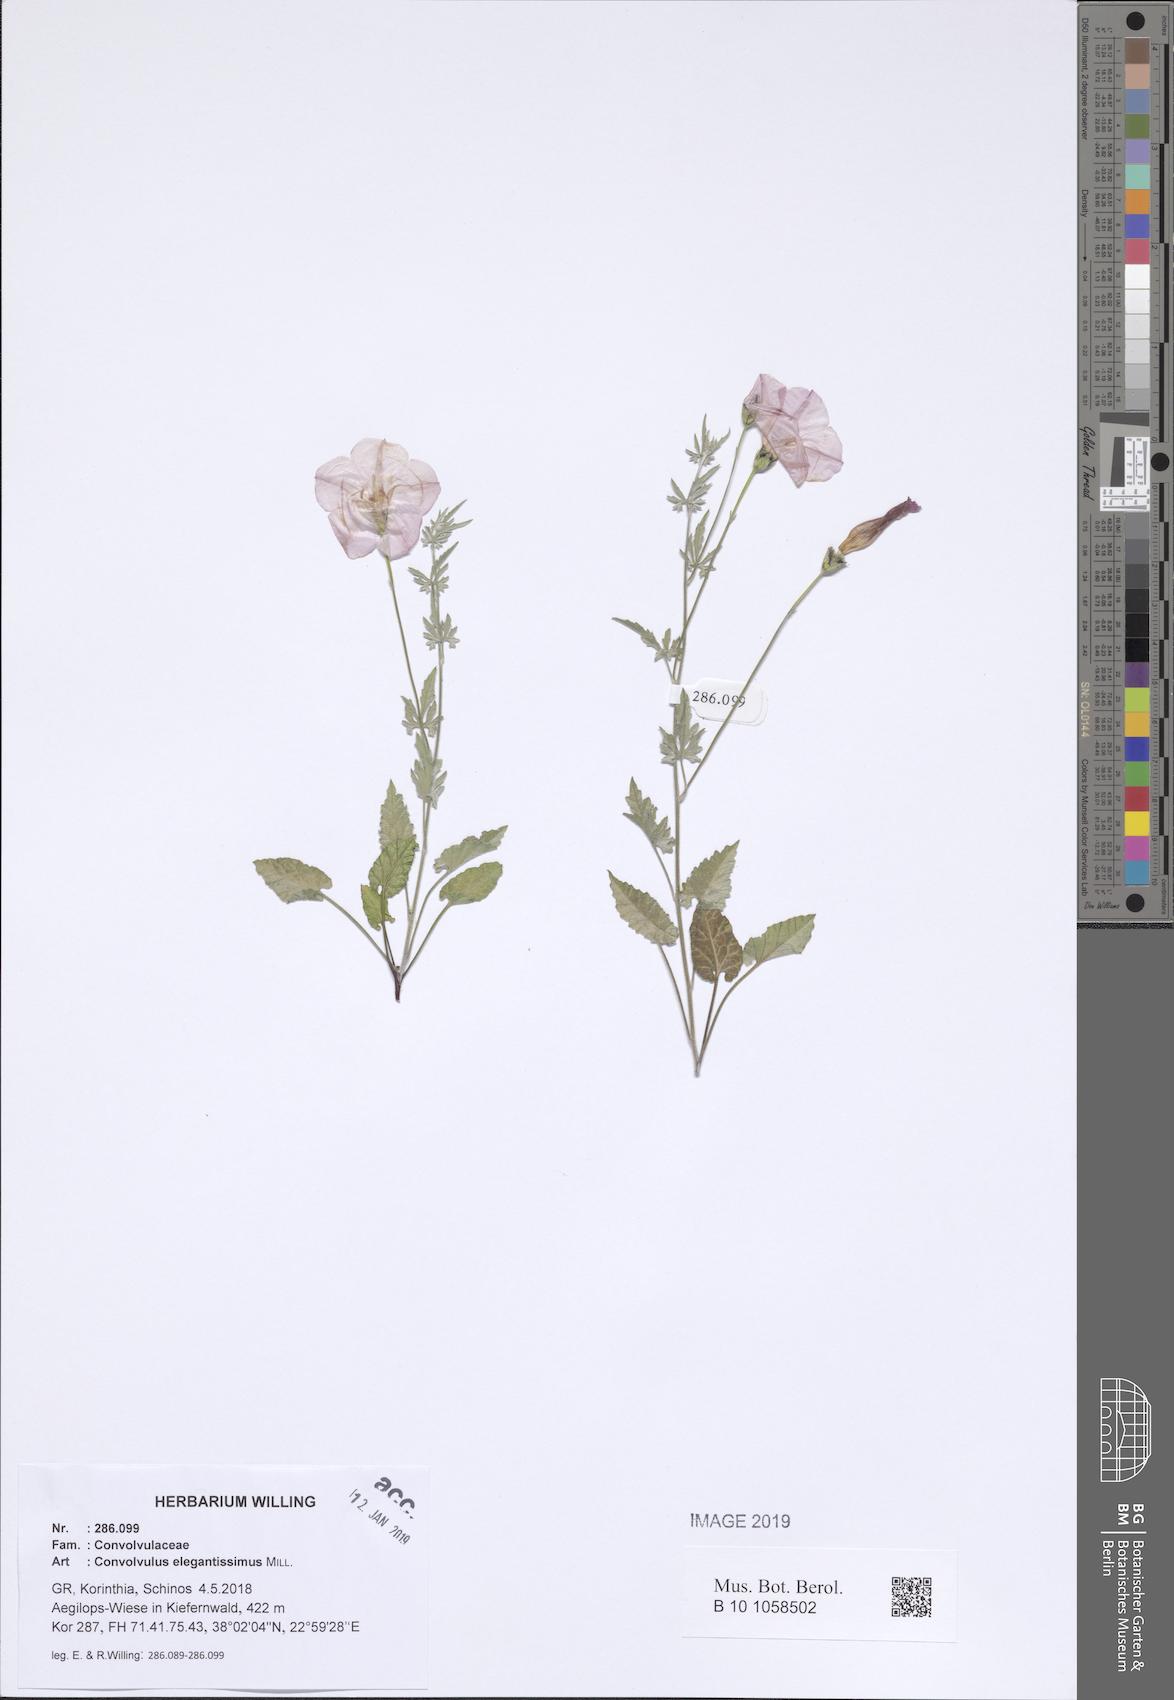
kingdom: Plantae
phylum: Tracheophyta
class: Magnoliopsida
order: Solanales
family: Convolvulaceae
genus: Convolvulus
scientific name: Convolvulus elegantissimus
